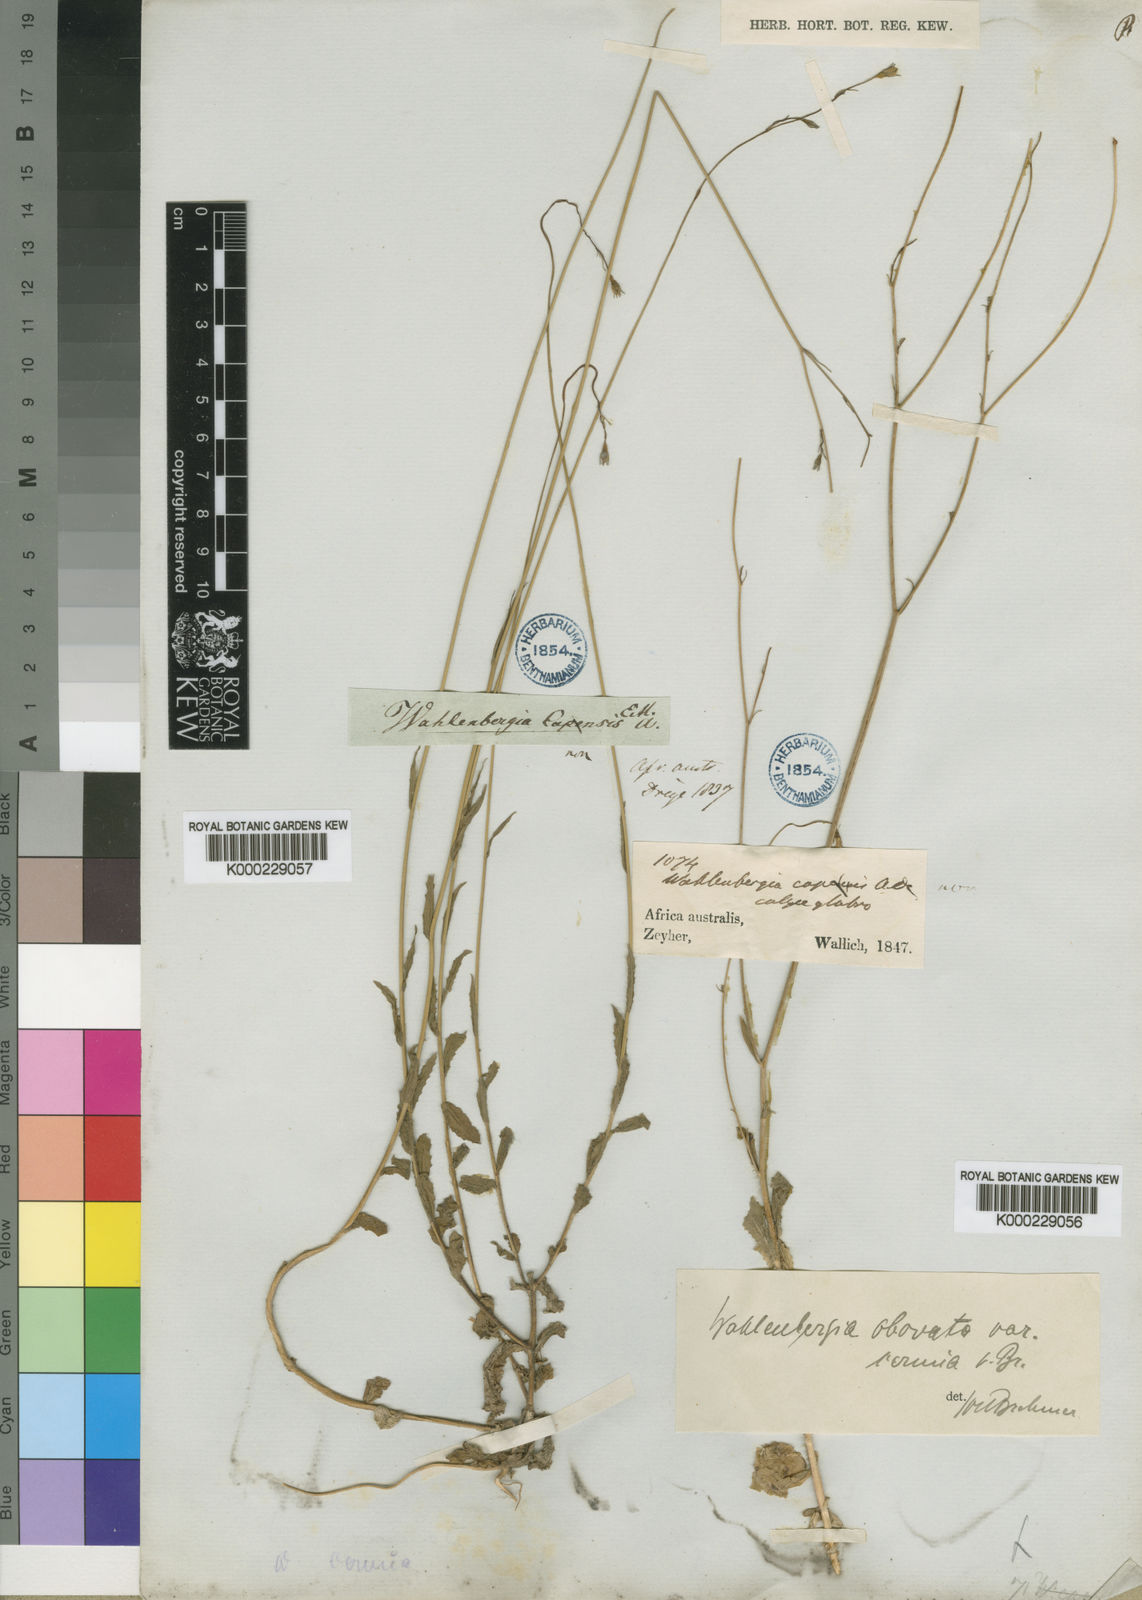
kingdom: Plantae
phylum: Tracheophyta
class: Magnoliopsida
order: Asterales
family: Campanulaceae
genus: Wahlenbergia
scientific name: Wahlenbergia obovata
